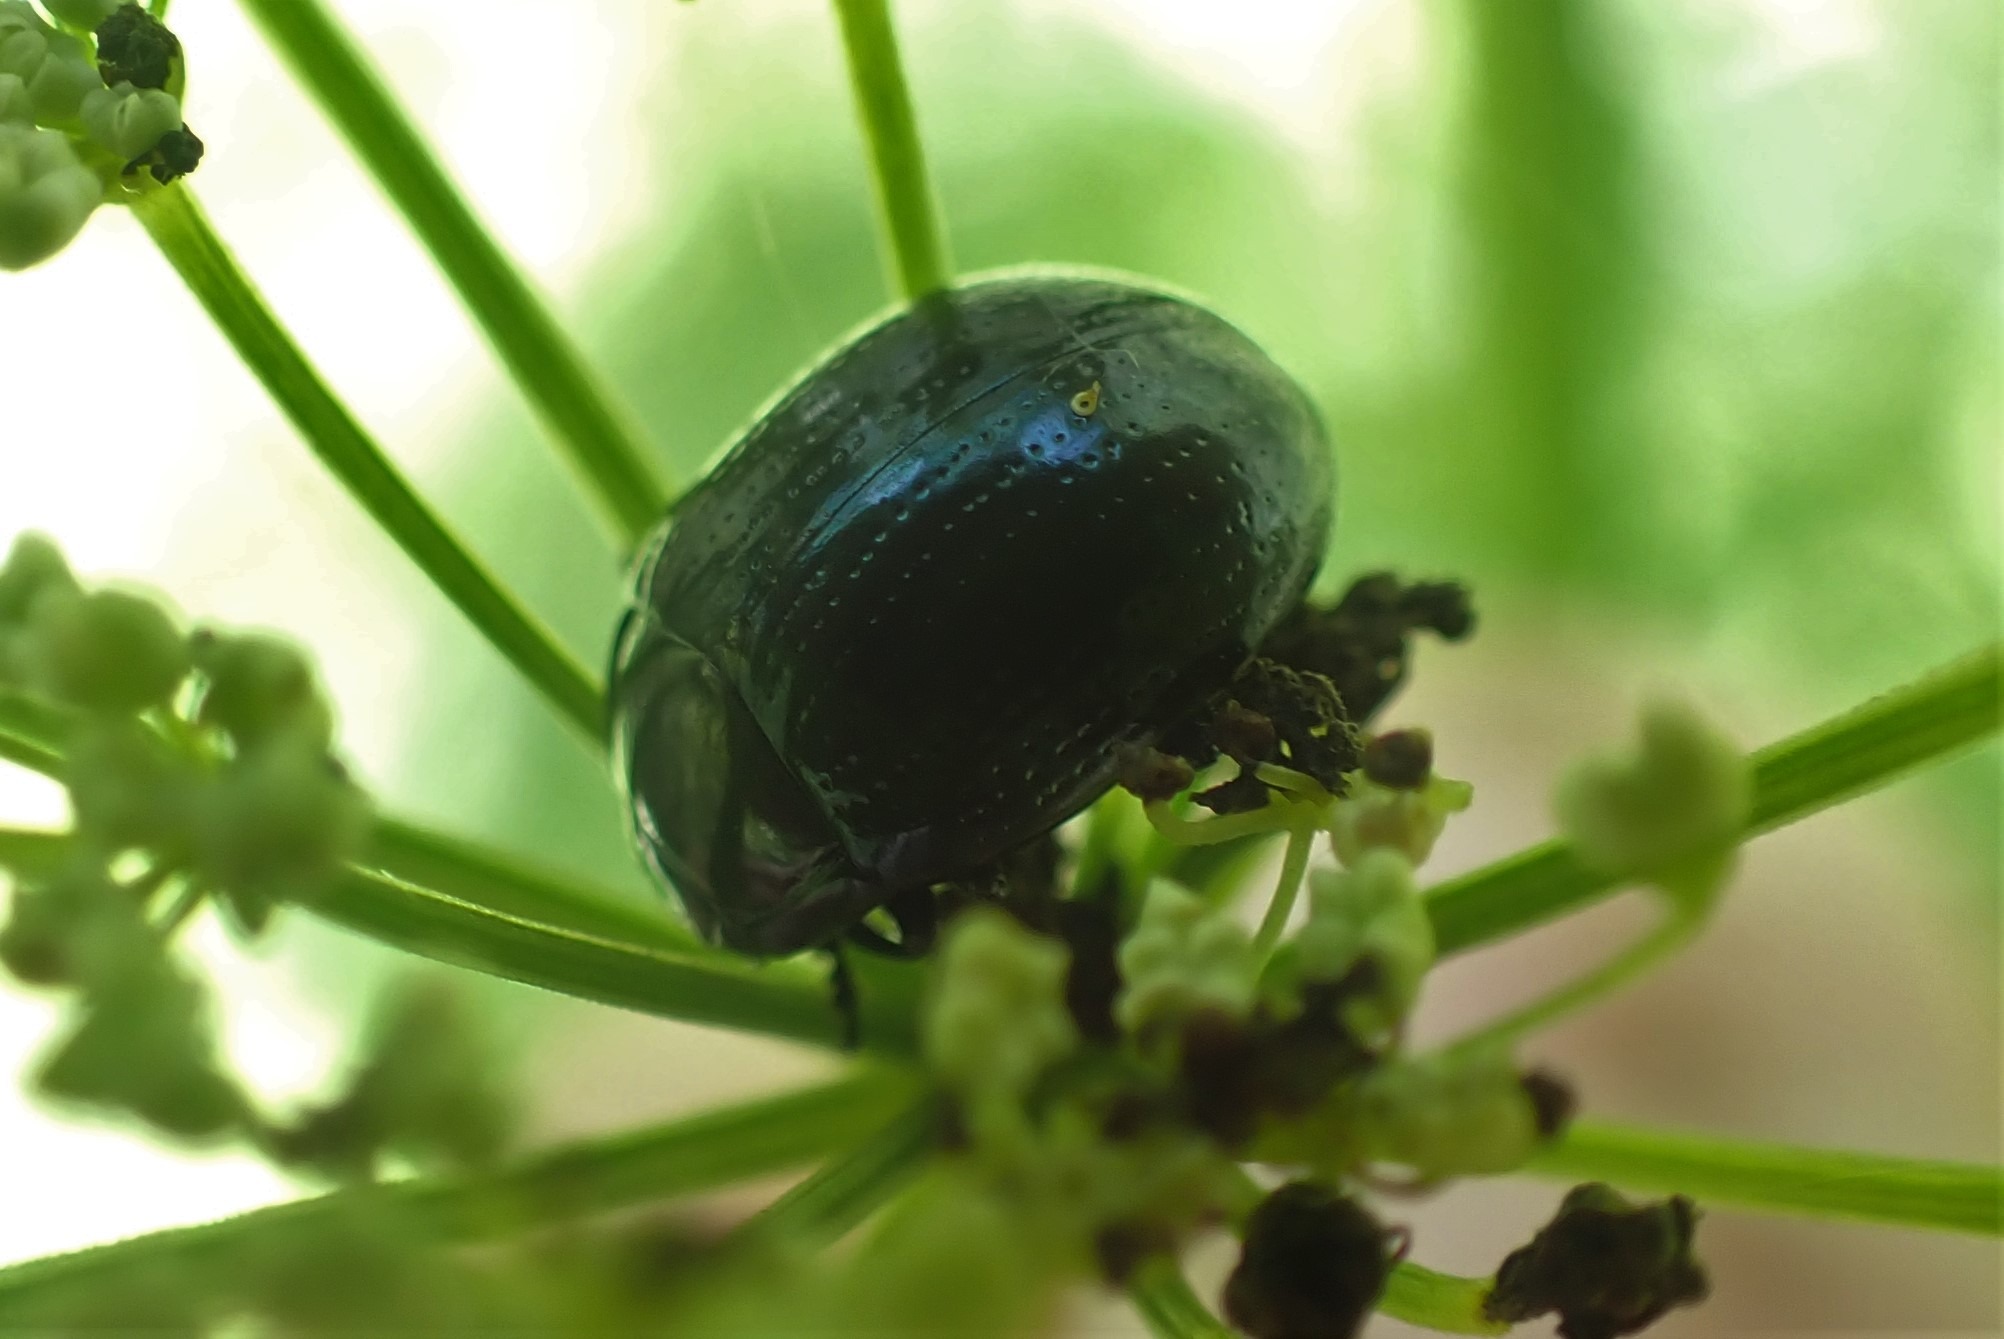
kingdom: Animalia
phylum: Arthropoda
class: Insecta
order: Coleoptera
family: Chrysomelidae
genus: Chrysolina
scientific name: Chrysolina oricalcia
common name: Rækkepunkteret guldbille
